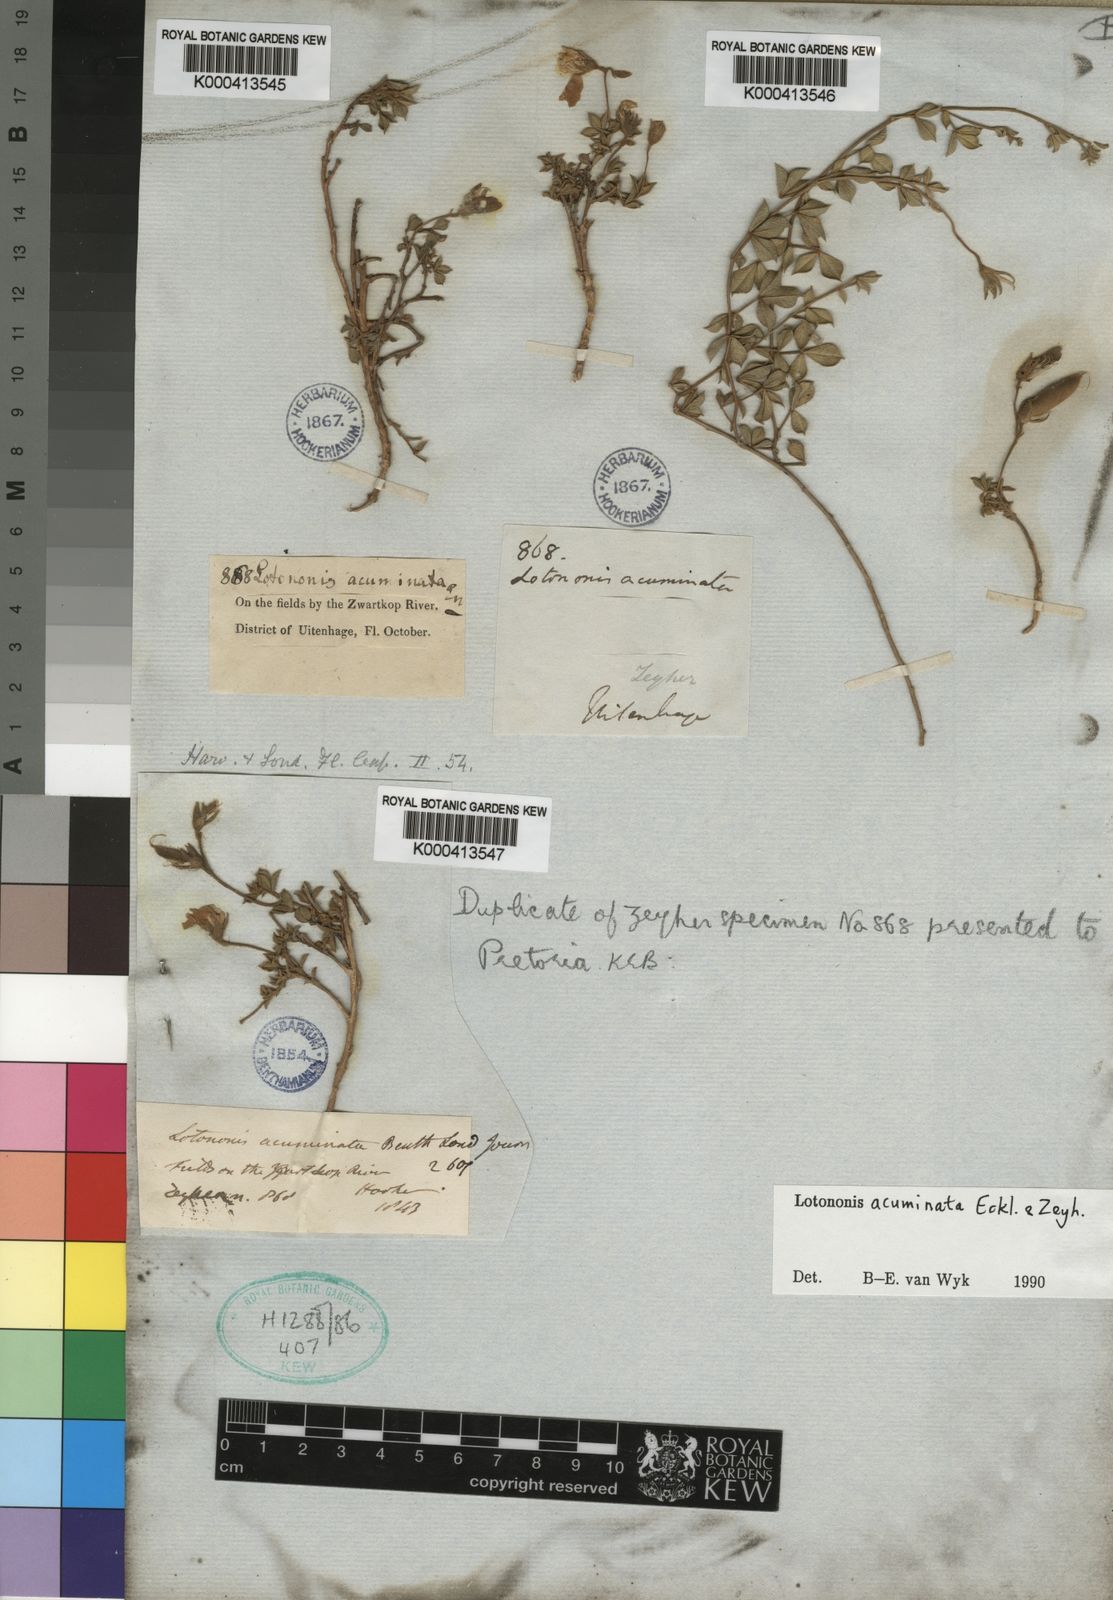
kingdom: Plantae
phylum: Tracheophyta
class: Magnoliopsida
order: Fabales
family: Fabaceae
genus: Lotononis
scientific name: Lotononis
